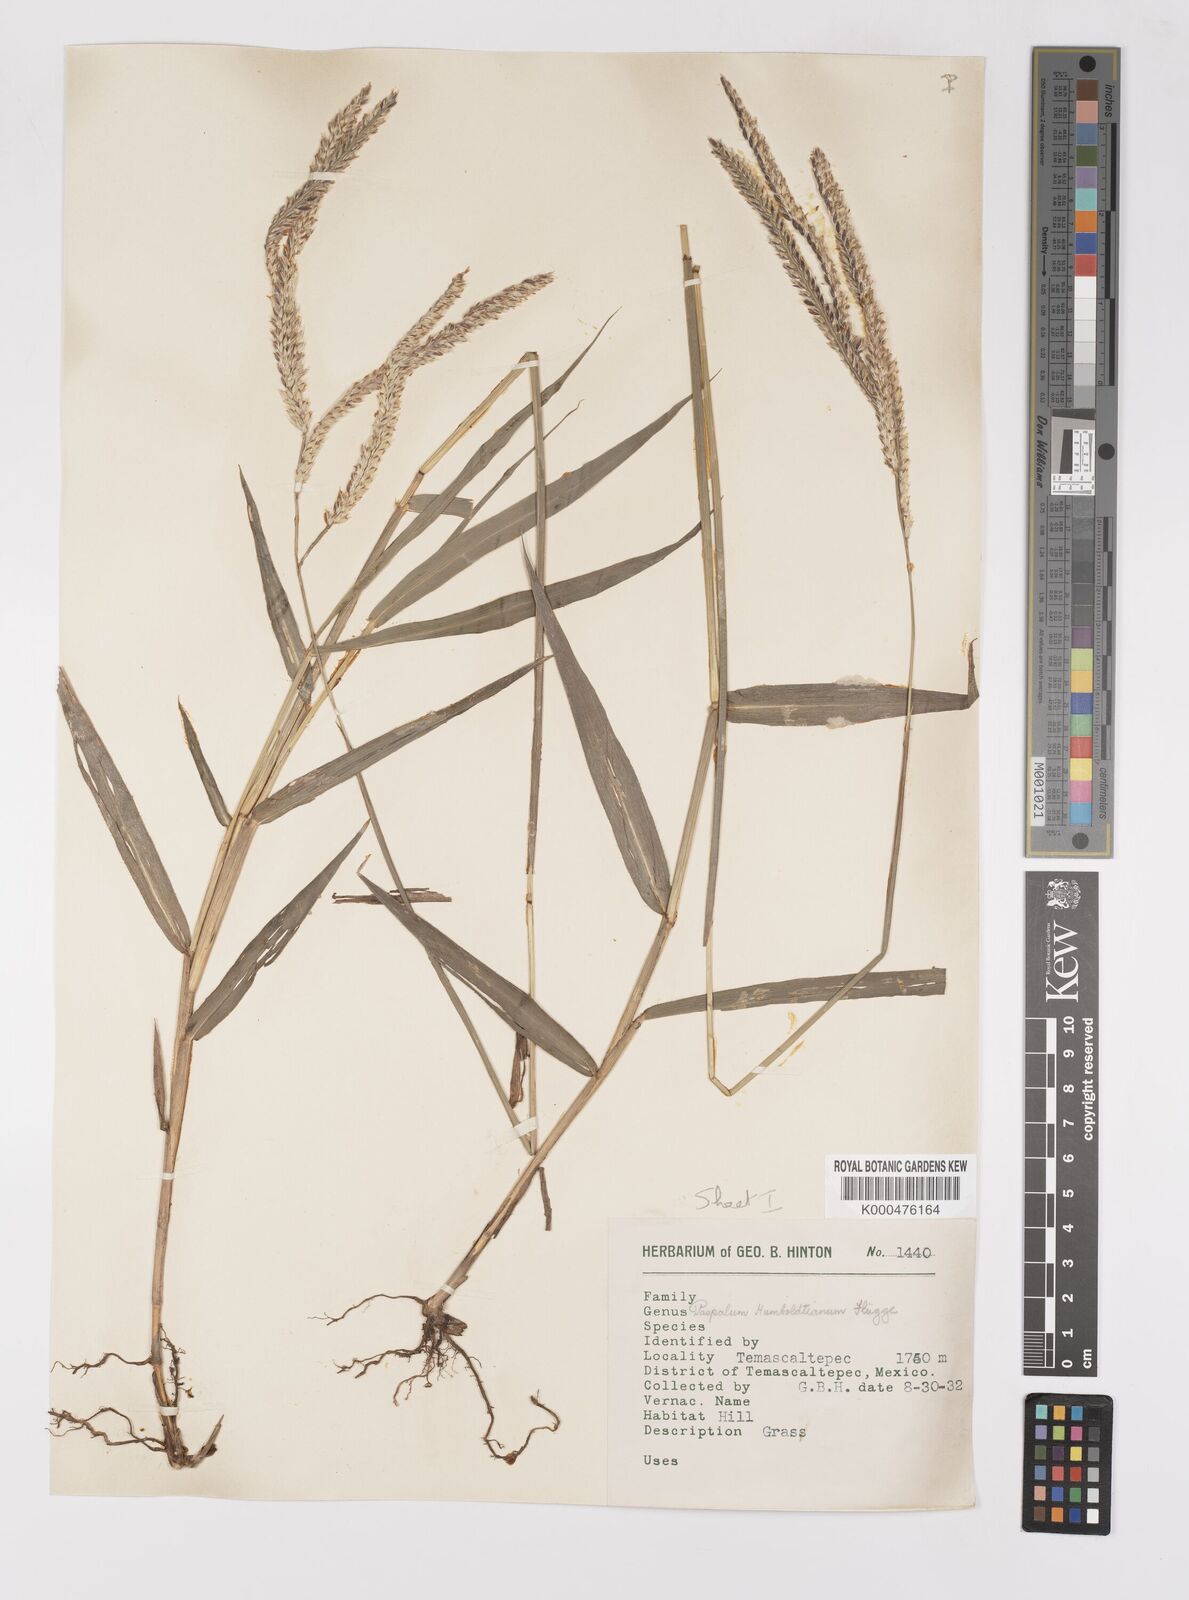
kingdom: Plantae
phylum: Tracheophyta
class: Liliopsida
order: Poales
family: Poaceae
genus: Paspalum
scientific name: Paspalum
